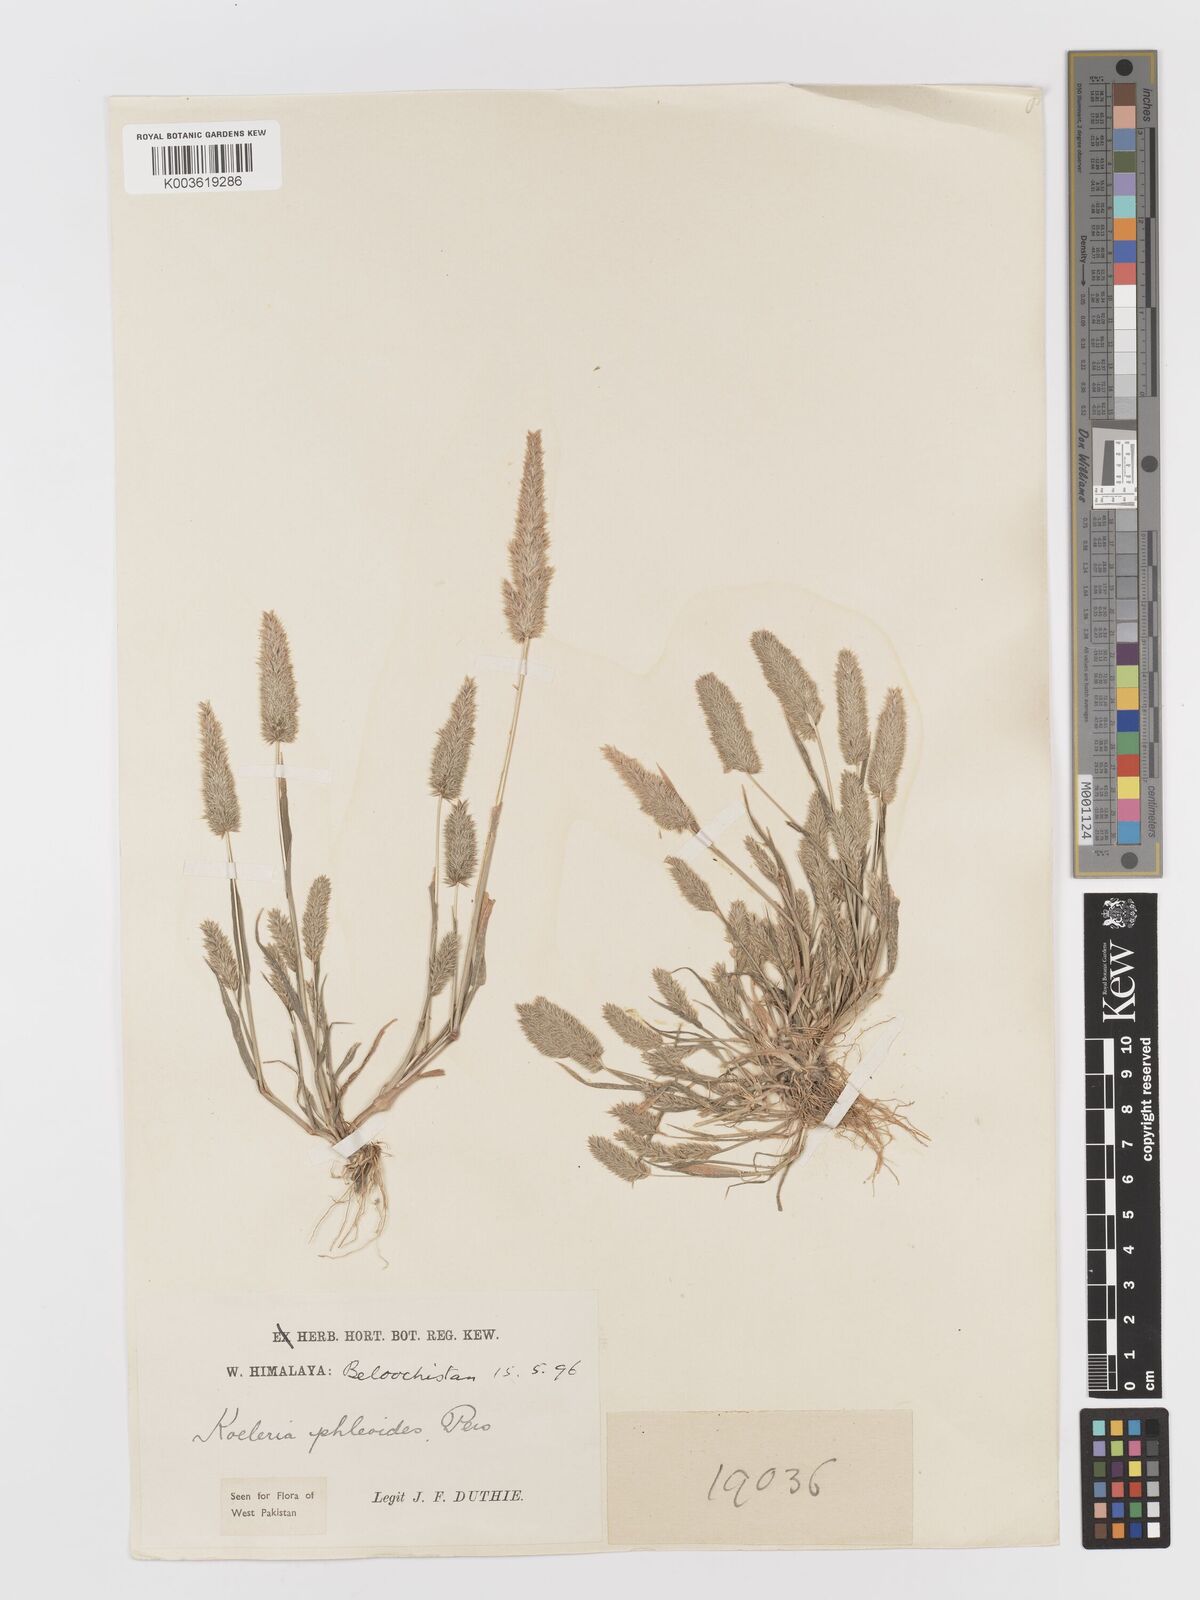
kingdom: Plantae
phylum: Tracheophyta
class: Liliopsida
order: Poales
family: Poaceae
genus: Rostraria
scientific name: Rostraria cristata
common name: Mediterranean hair-grass
